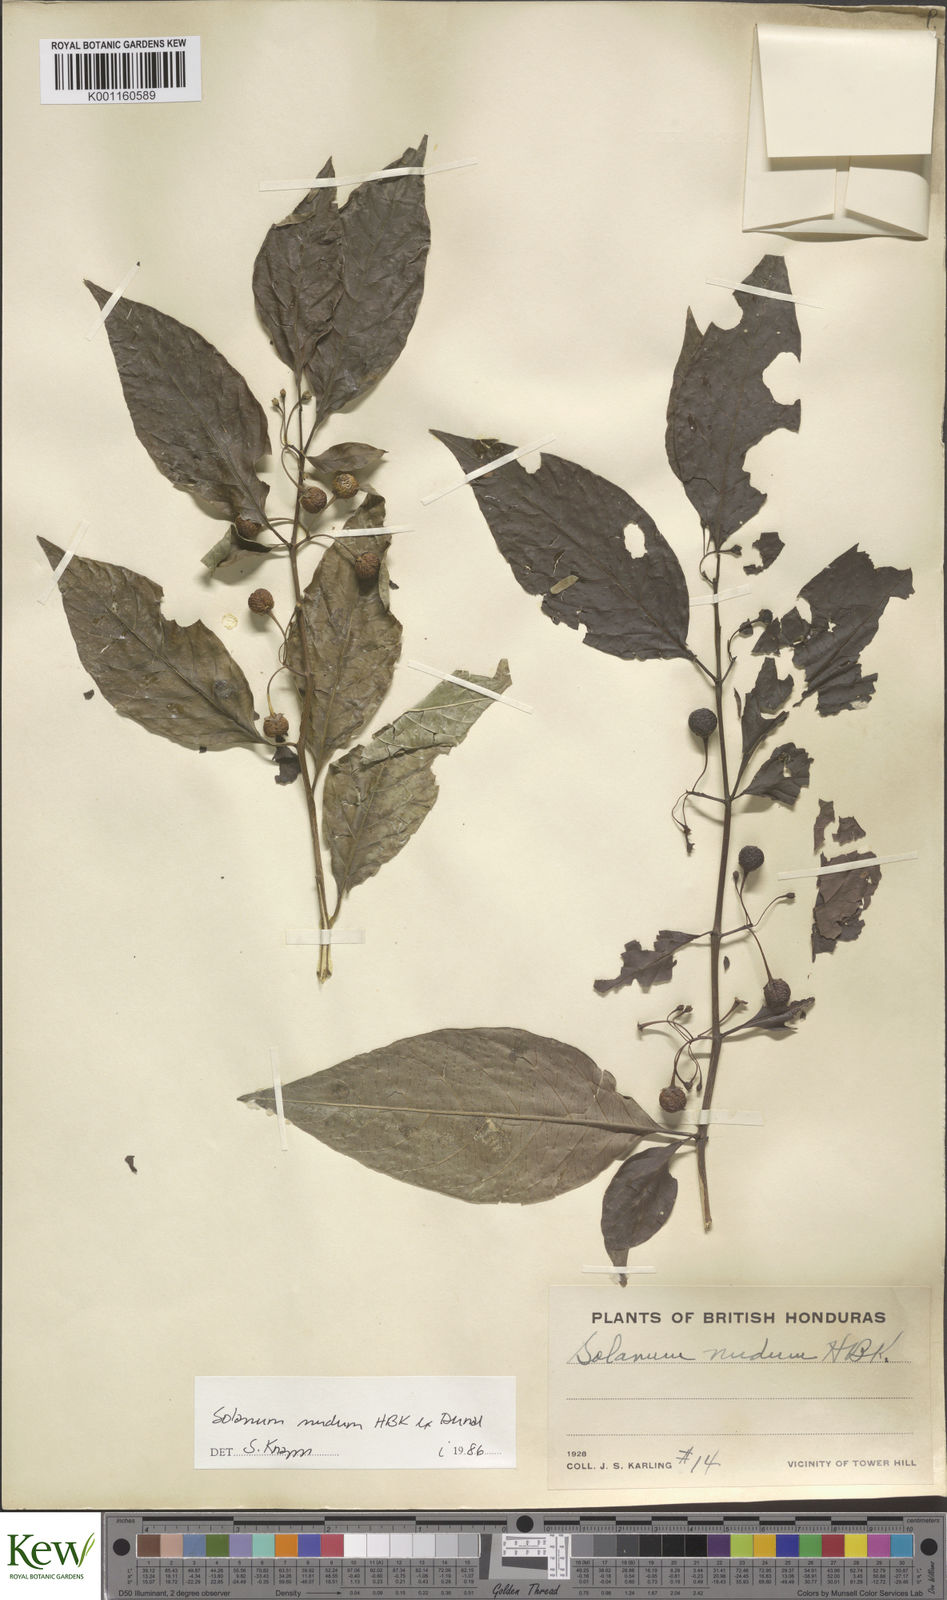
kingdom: Plantae
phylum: Tracheophyta
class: Magnoliopsida
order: Solanales
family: Solanaceae
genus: Solanum
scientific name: Solanum nudum
